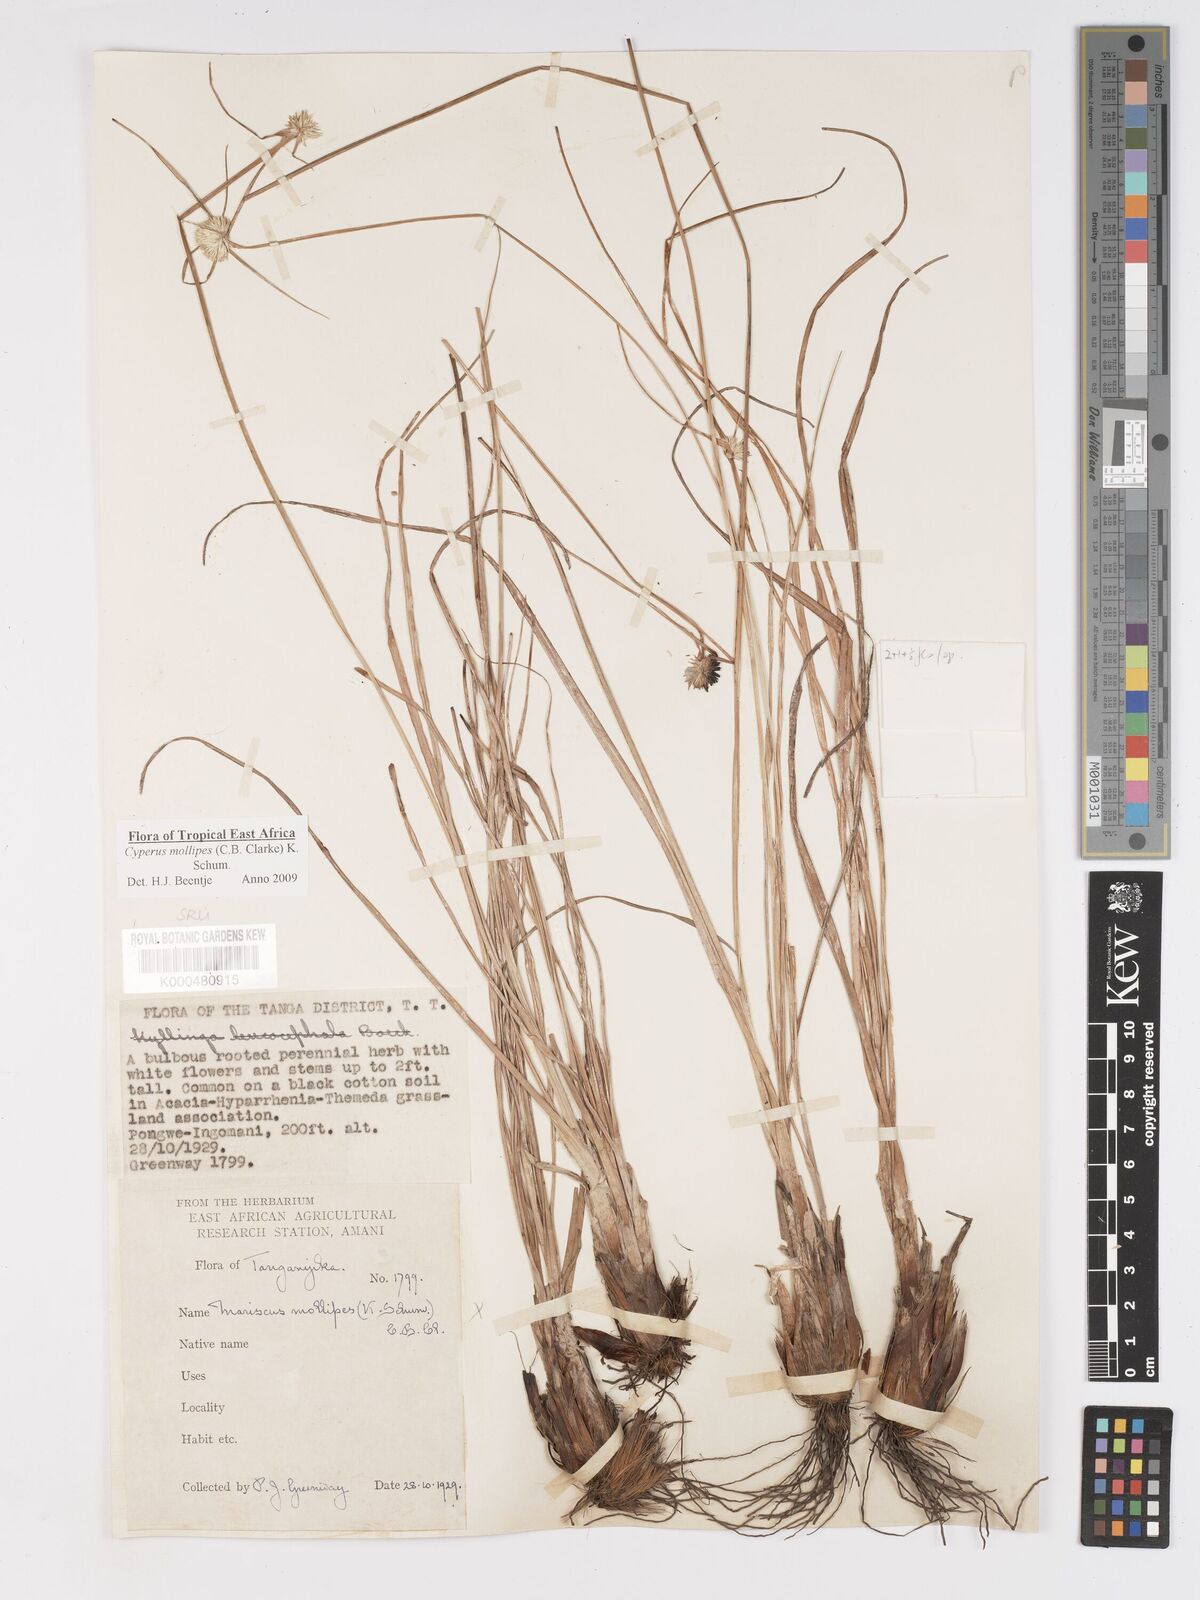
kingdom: Plantae
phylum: Tracheophyta
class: Liliopsida
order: Poales
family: Cyperaceae
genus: Cyperus
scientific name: Cyperus mollipes
